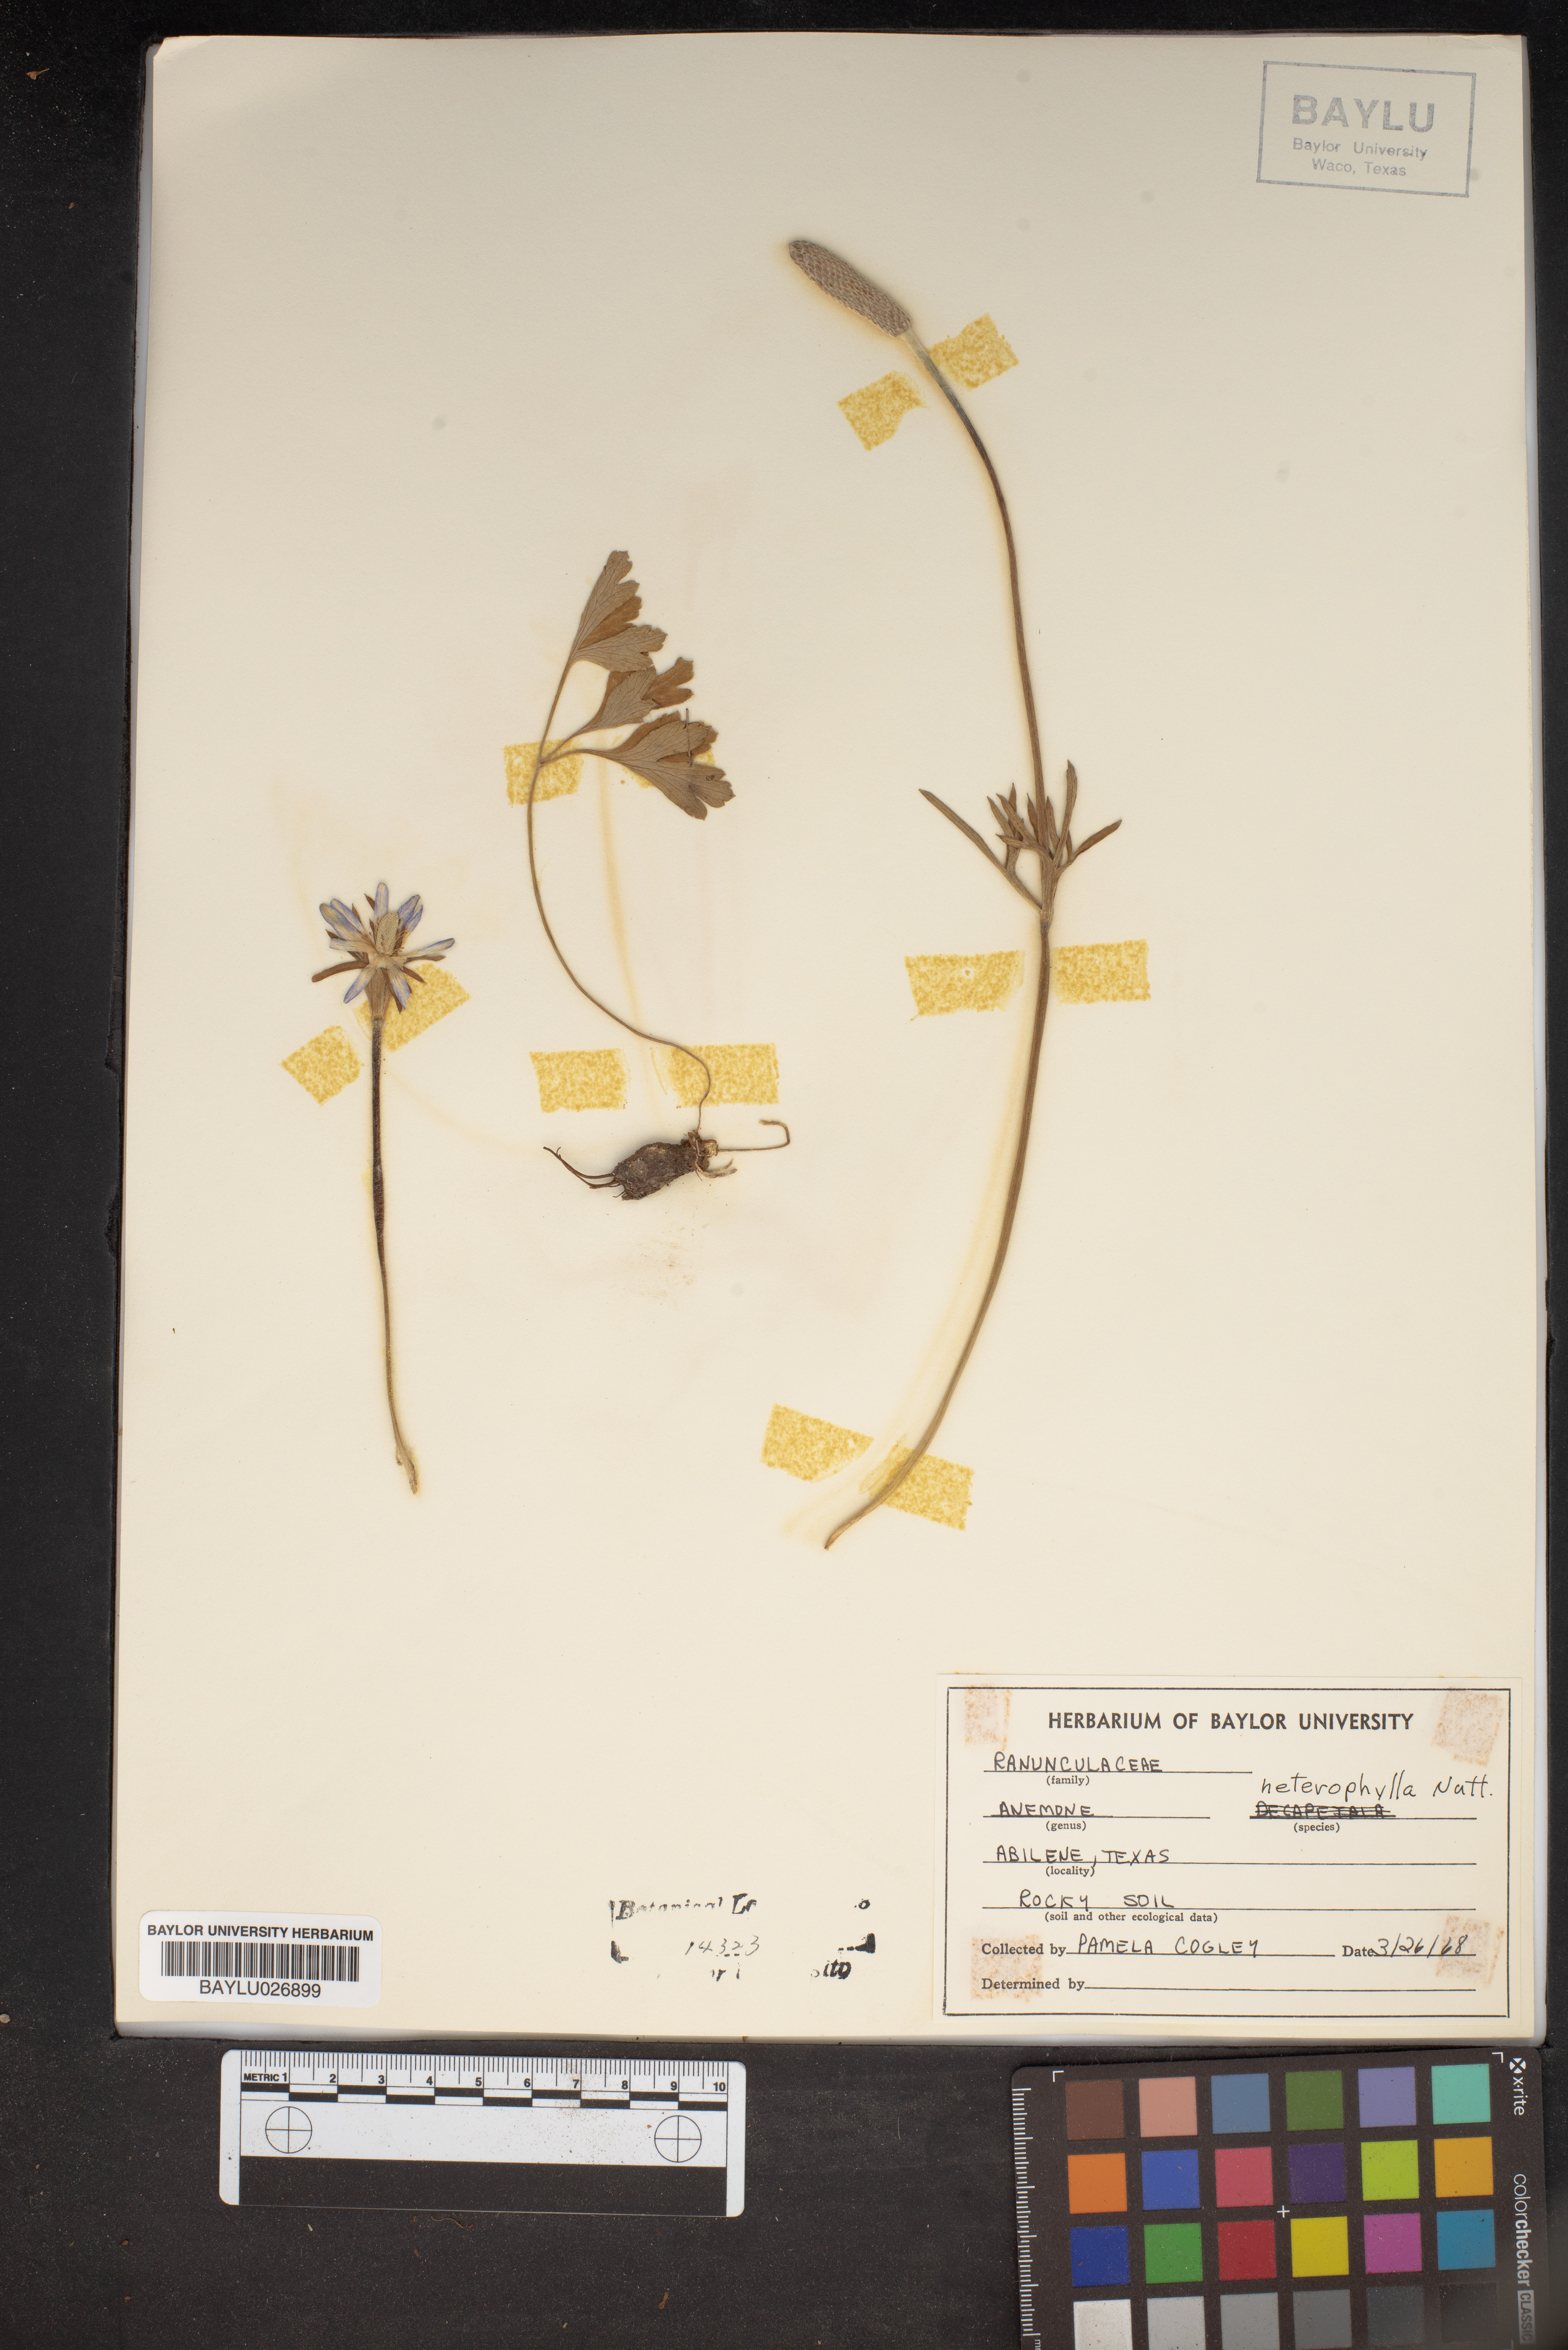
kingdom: Plantae
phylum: Tracheophyta
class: Magnoliopsida
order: Ranunculales
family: Ranunculaceae
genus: Anemone
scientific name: Anemone heterophylla
